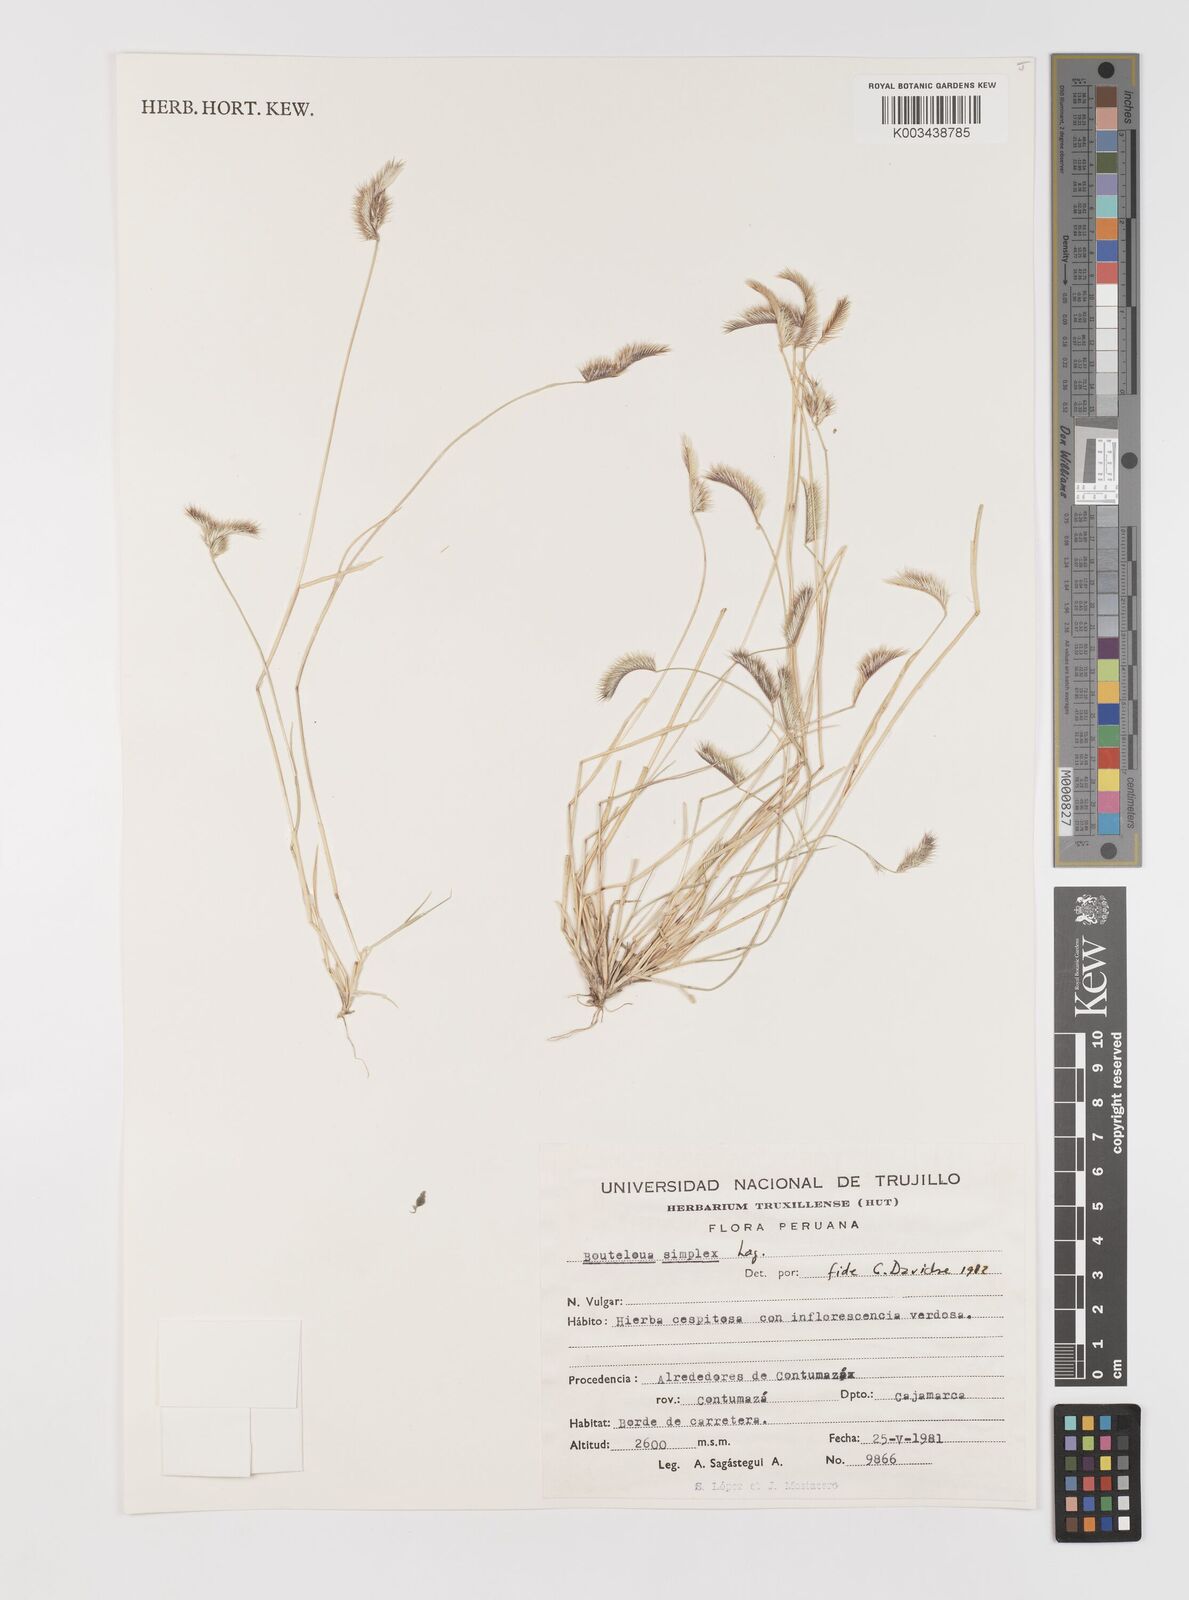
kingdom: Plantae
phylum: Tracheophyta
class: Liliopsida
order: Poales
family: Poaceae
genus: Bouteloua
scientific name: Bouteloua simplex
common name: Mat grama
